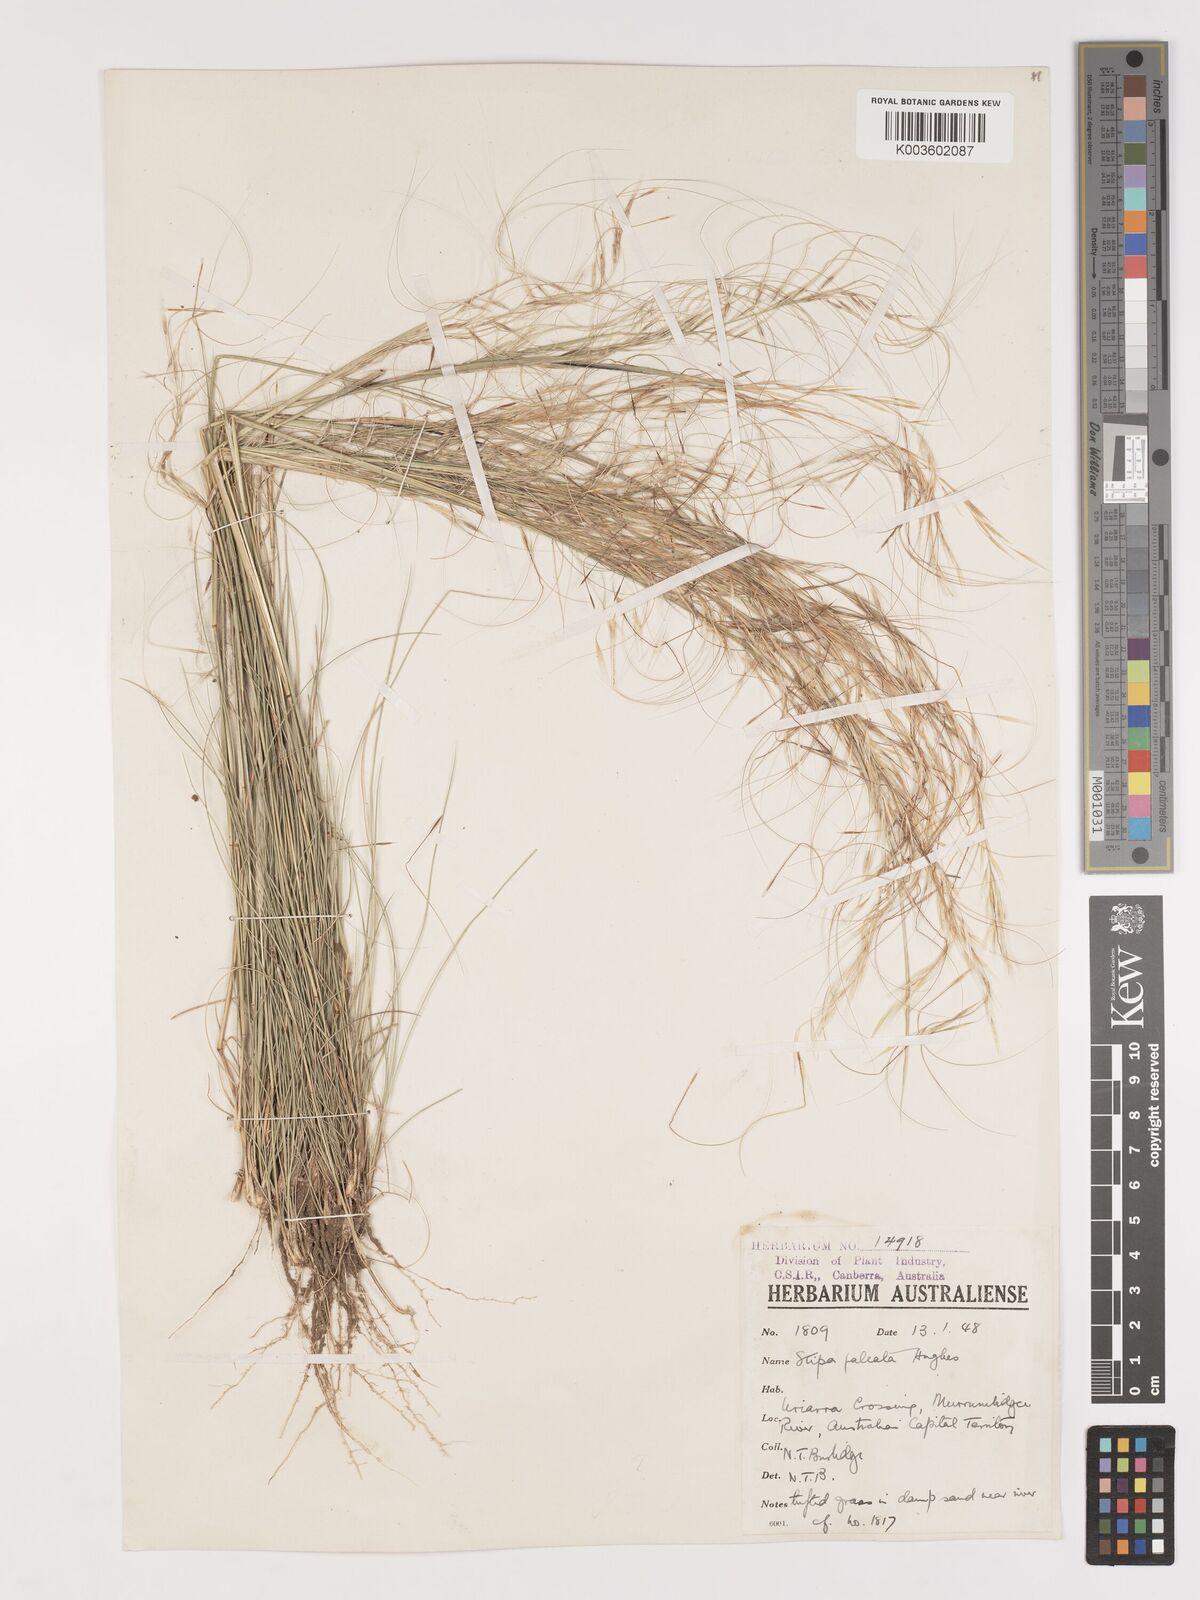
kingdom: Plantae
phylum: Tracheophyta
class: Liliopsida
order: Poales
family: Poaceae
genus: Austrostipa
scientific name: Austrostipa scabra
